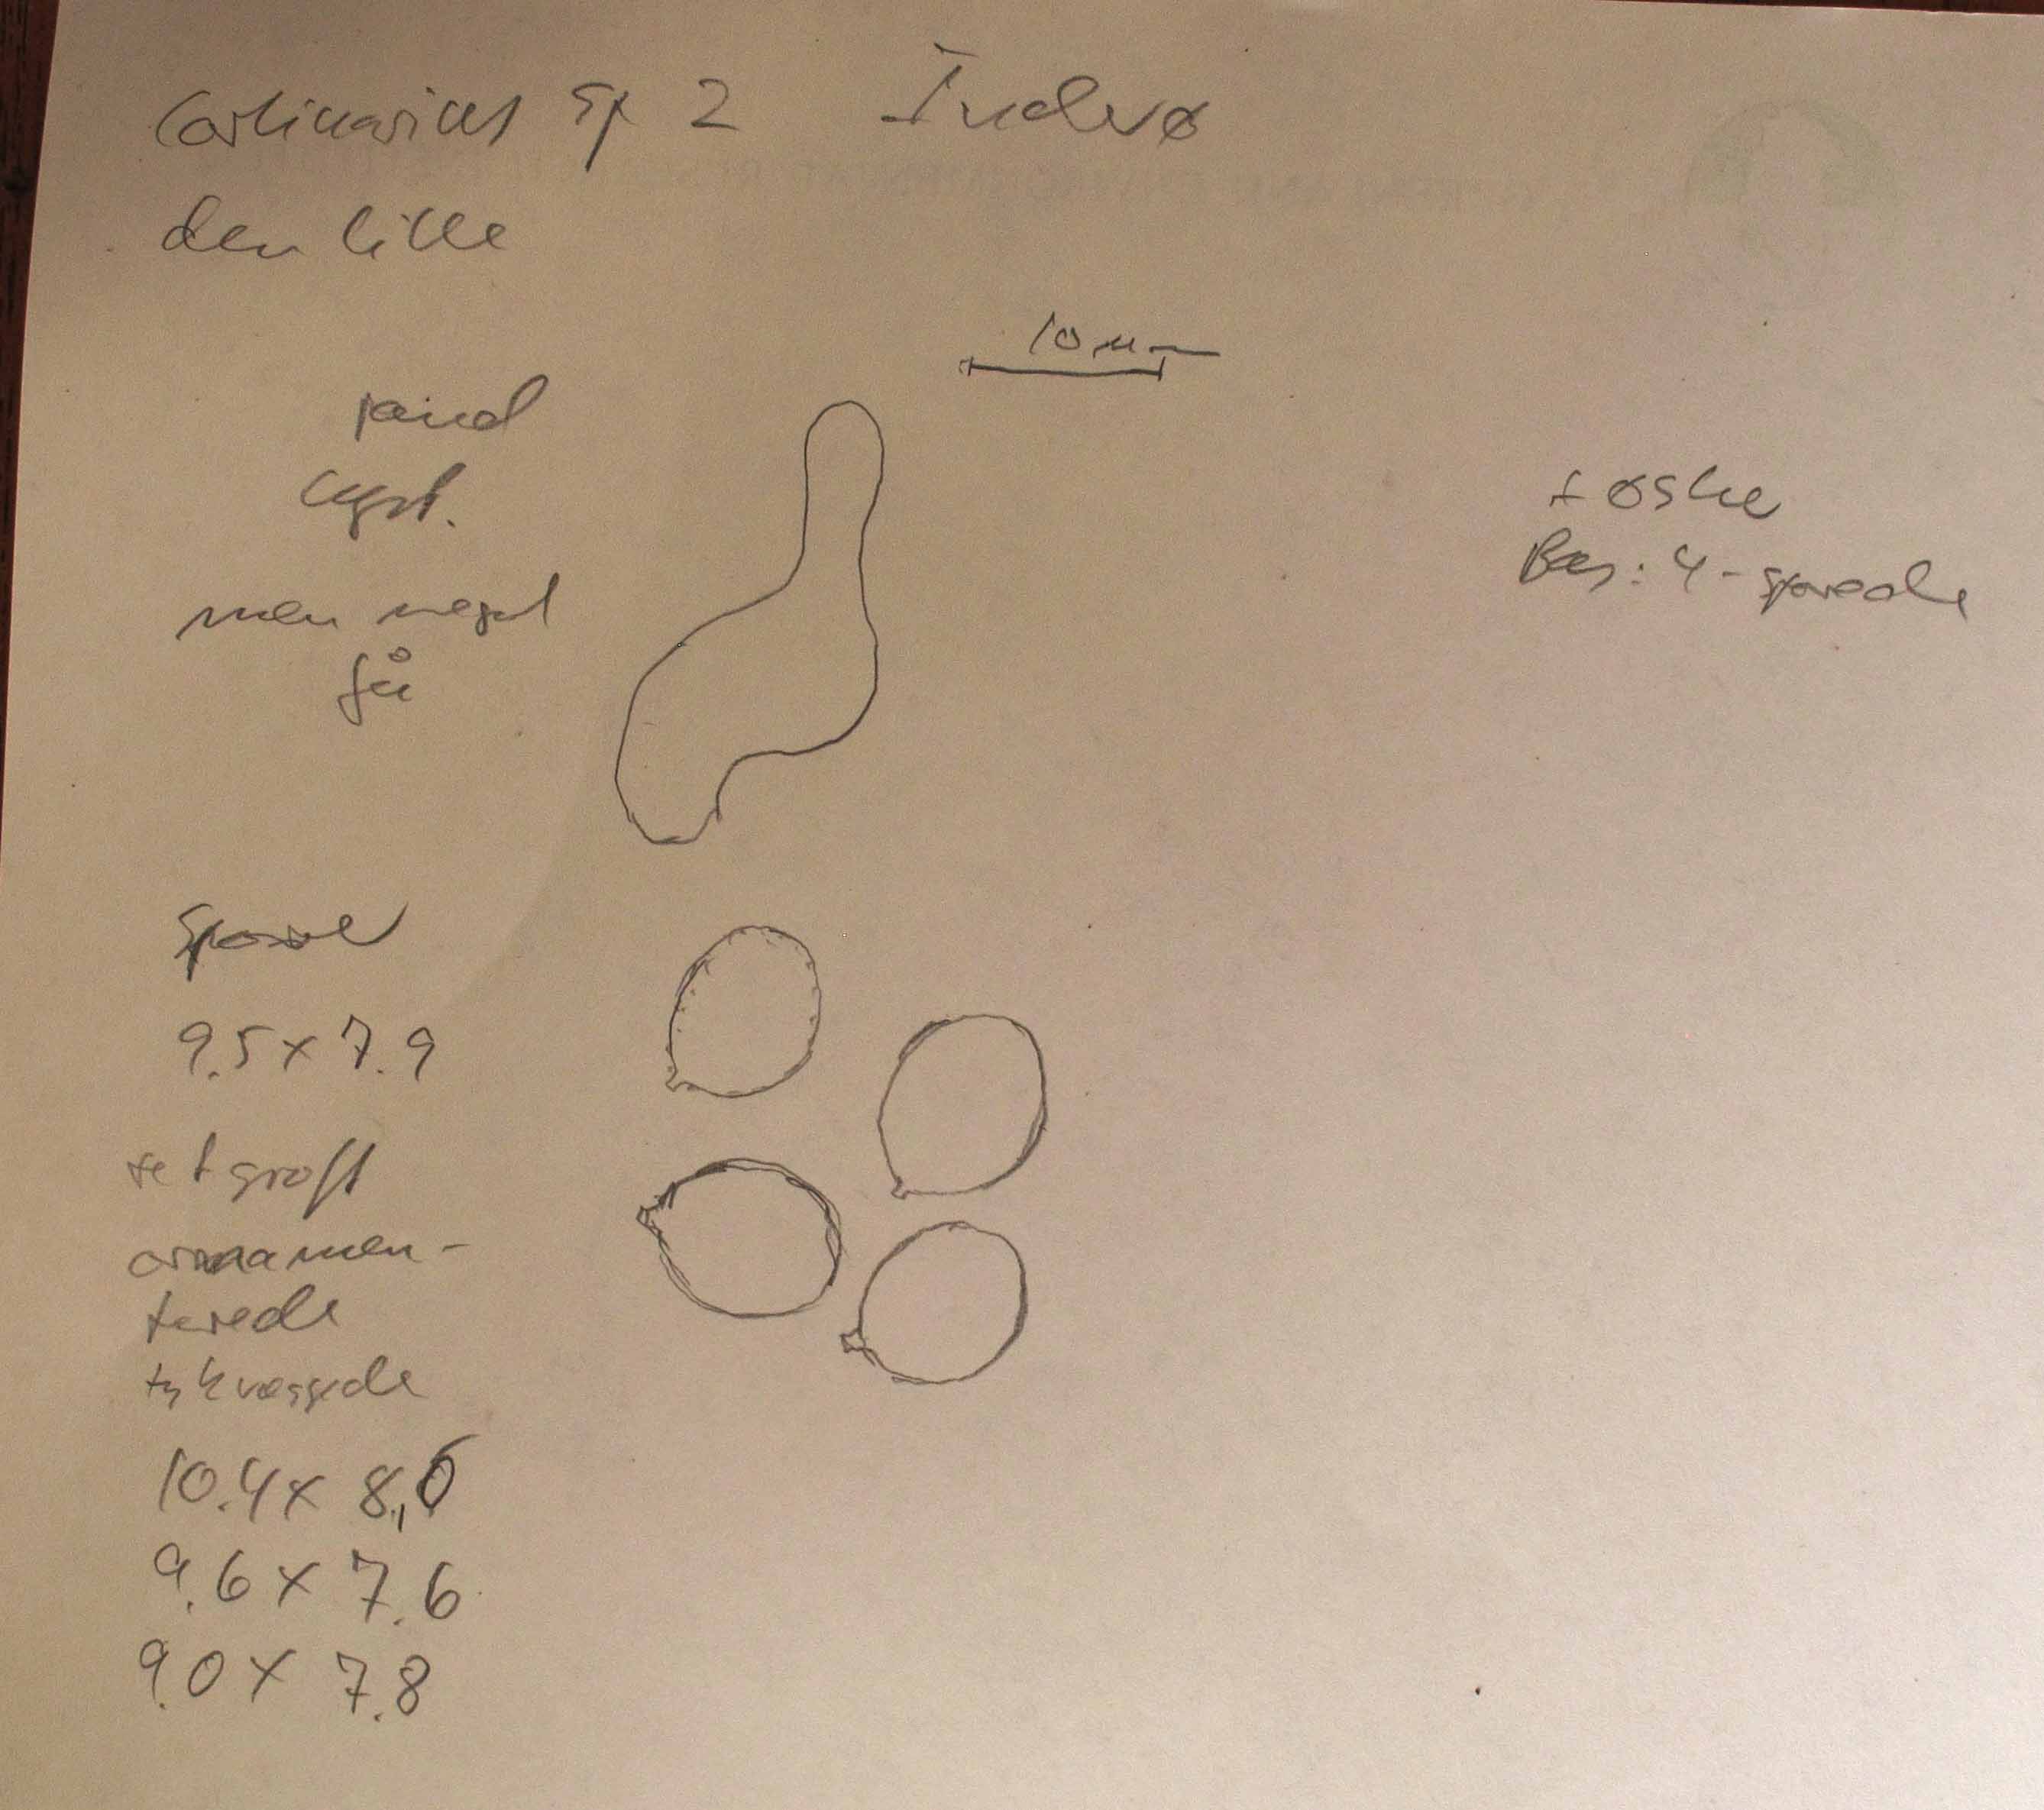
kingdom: Fungi
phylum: Basidiomycota
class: Agaricomycetes
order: Agaricales
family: Cortinariaceae
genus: Cortinarius
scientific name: Cortinarius rubellus
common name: puklet gift-slørhat
